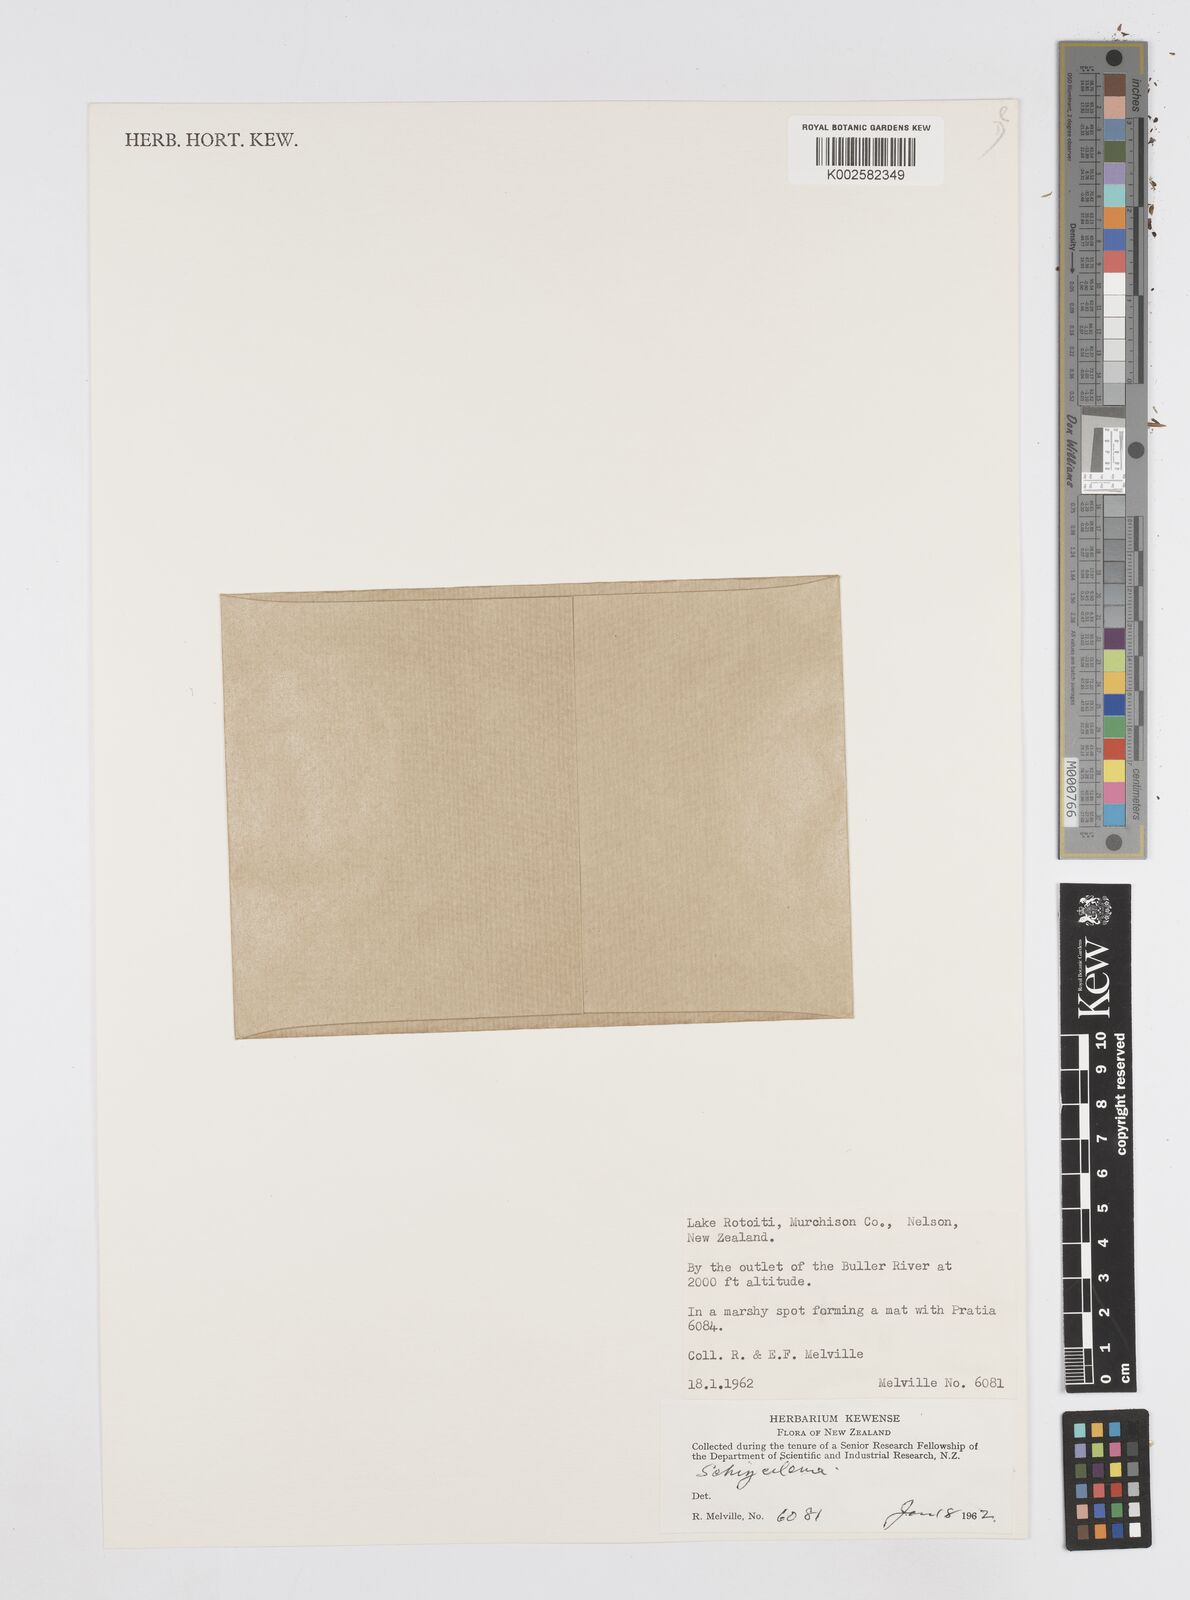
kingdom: Plantae
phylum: Tracheophyta
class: Magnoliopsida
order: Apiales
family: Apiaceae
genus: Azorella
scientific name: Azorella nitens
